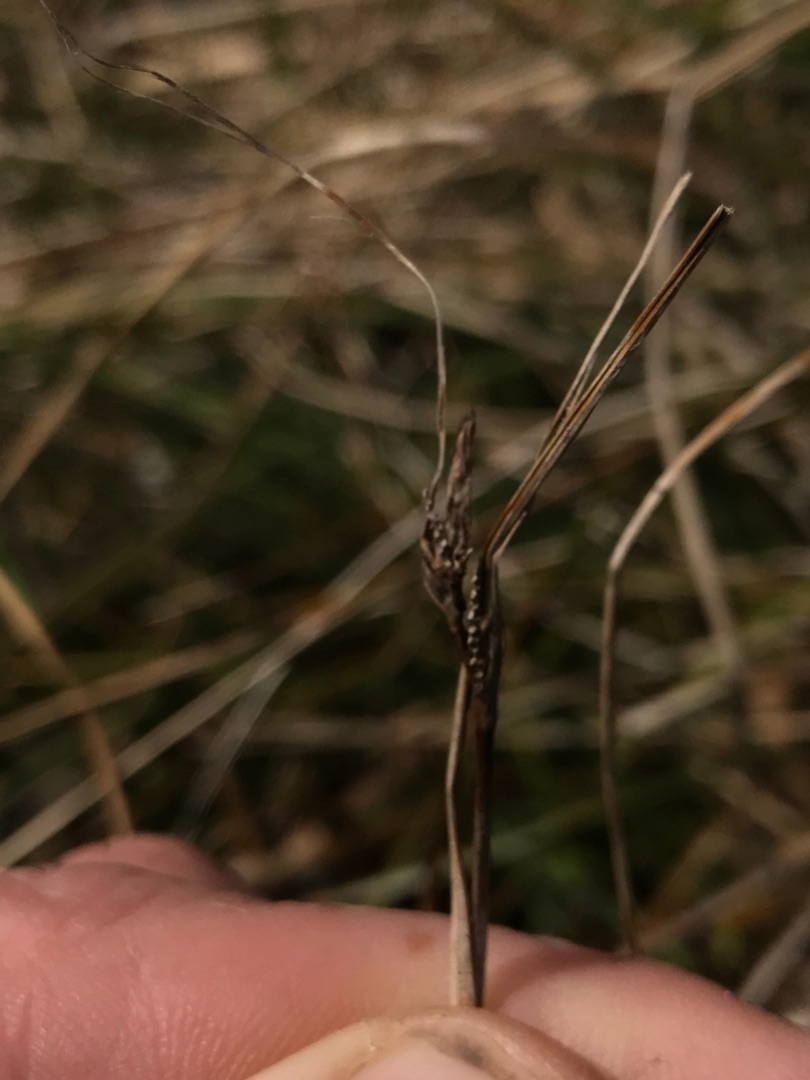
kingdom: Plantae
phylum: Tracheophyta
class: Liliopsida
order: Poales
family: Cyperaceae
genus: Carex
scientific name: Carex extensa
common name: Udspilet star
